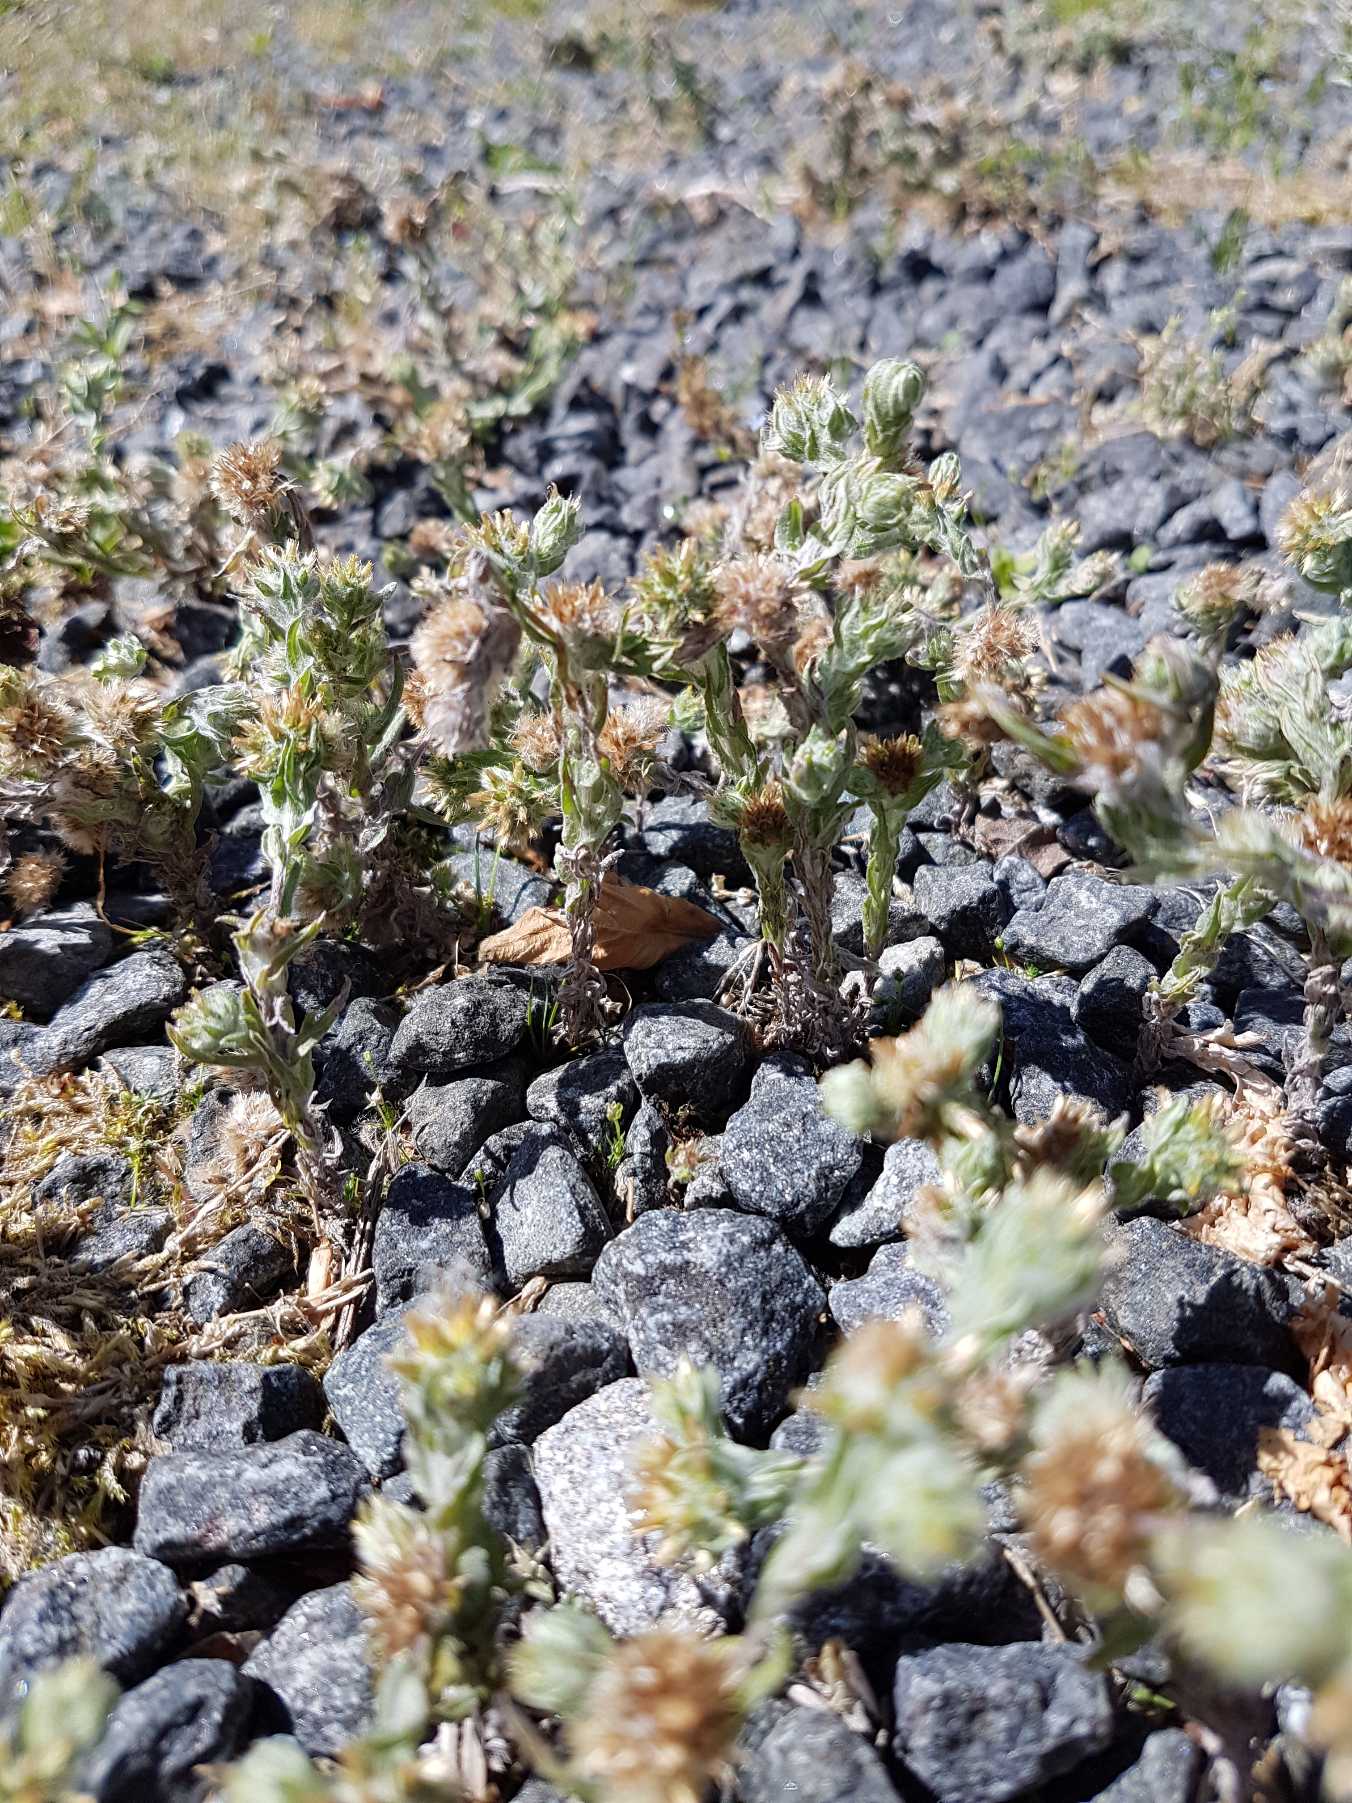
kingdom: Plantae
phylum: Tracheophyta
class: Magnoliopsida
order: Asterales
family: Asteraceae
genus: Filago
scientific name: Filago germanica
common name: Kugle-museurt
